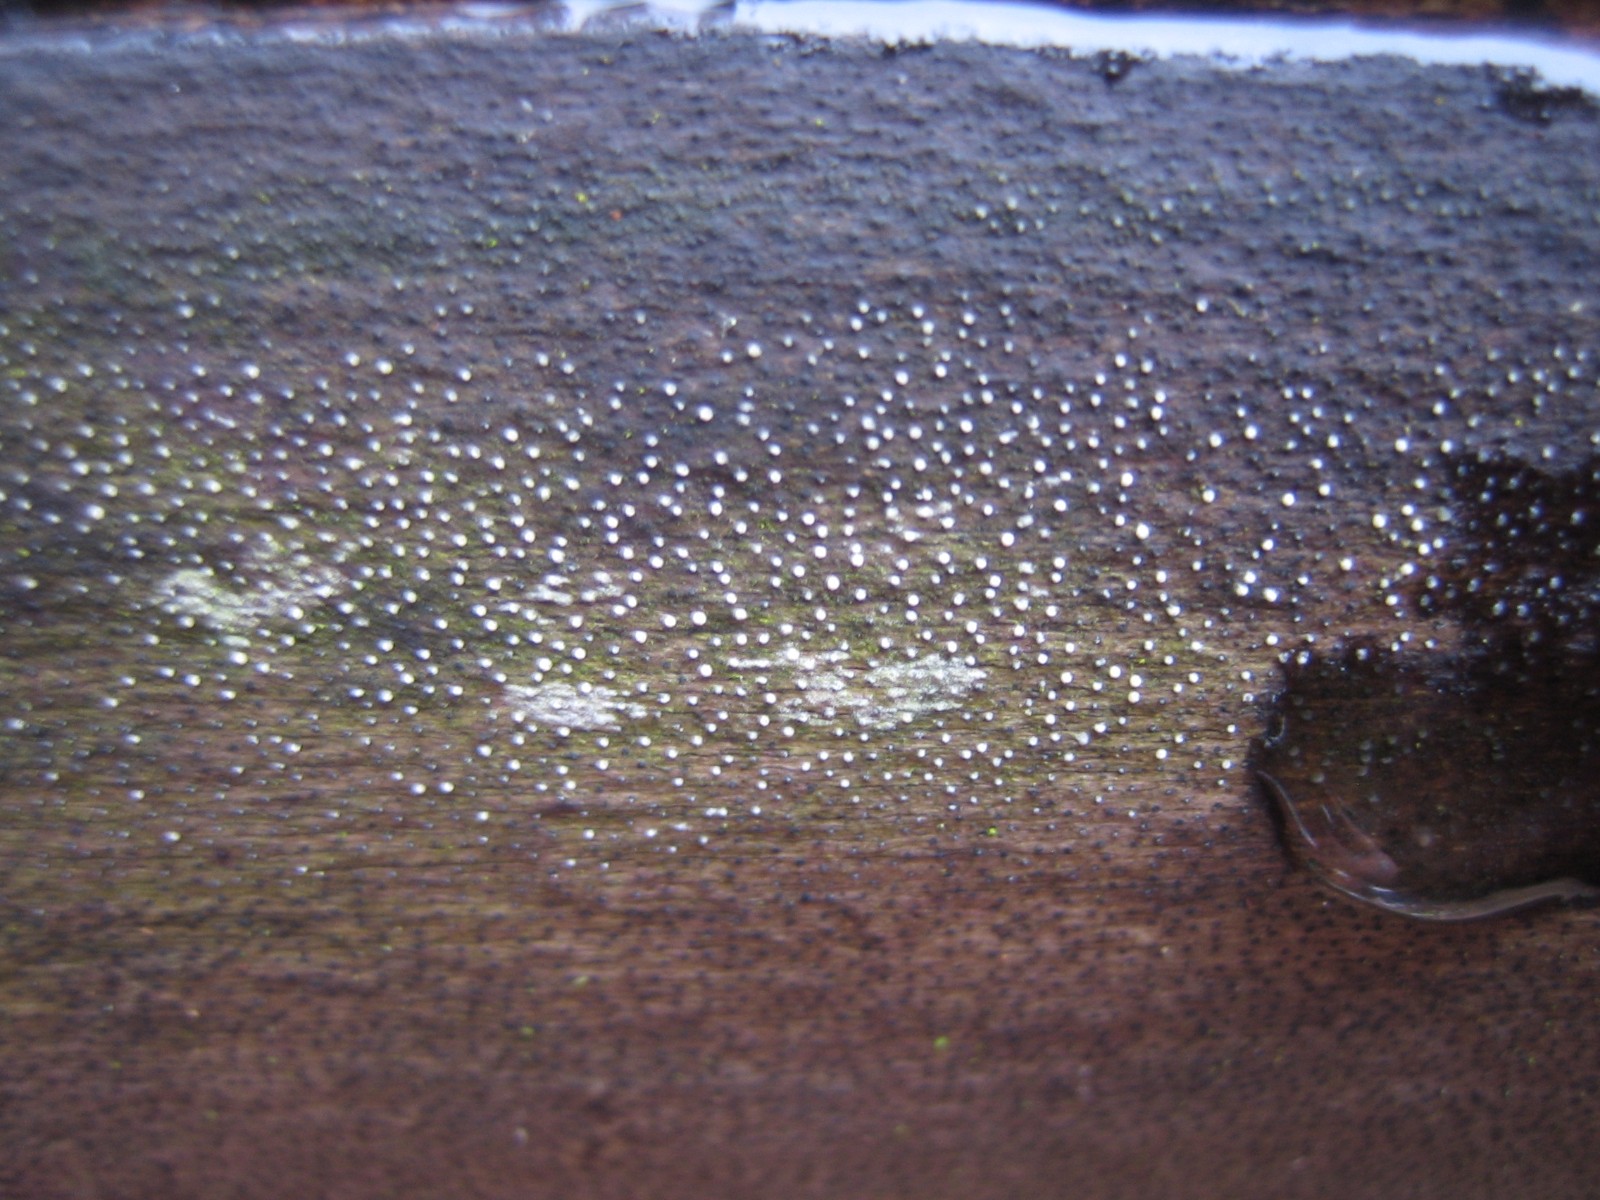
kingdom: Fungi
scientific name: Fungi
